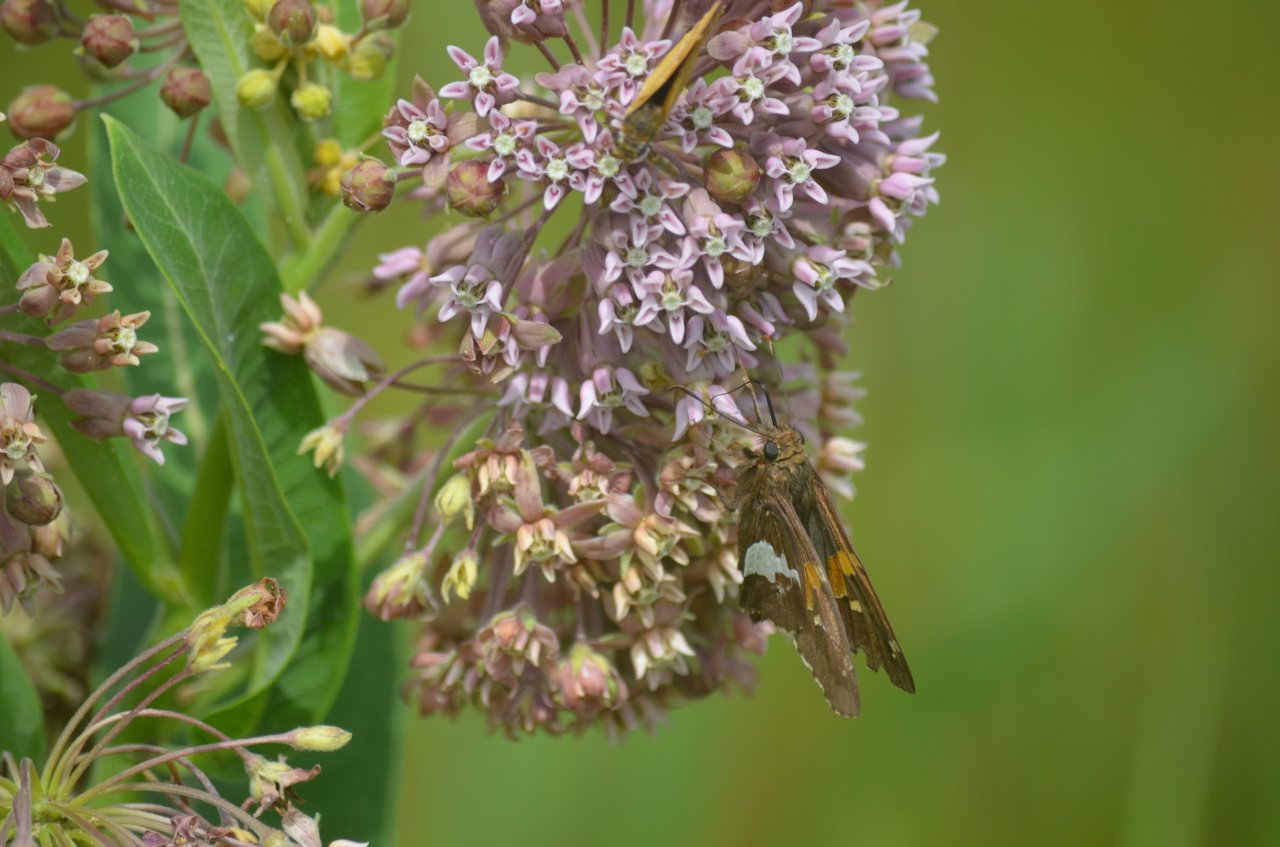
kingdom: Animalia
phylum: Arthropoda
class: Insecta
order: Lepidoptera
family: Hesperiidae
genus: Epargyreus
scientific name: Epargyreus clarus
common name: Silver-spotted Skipper
